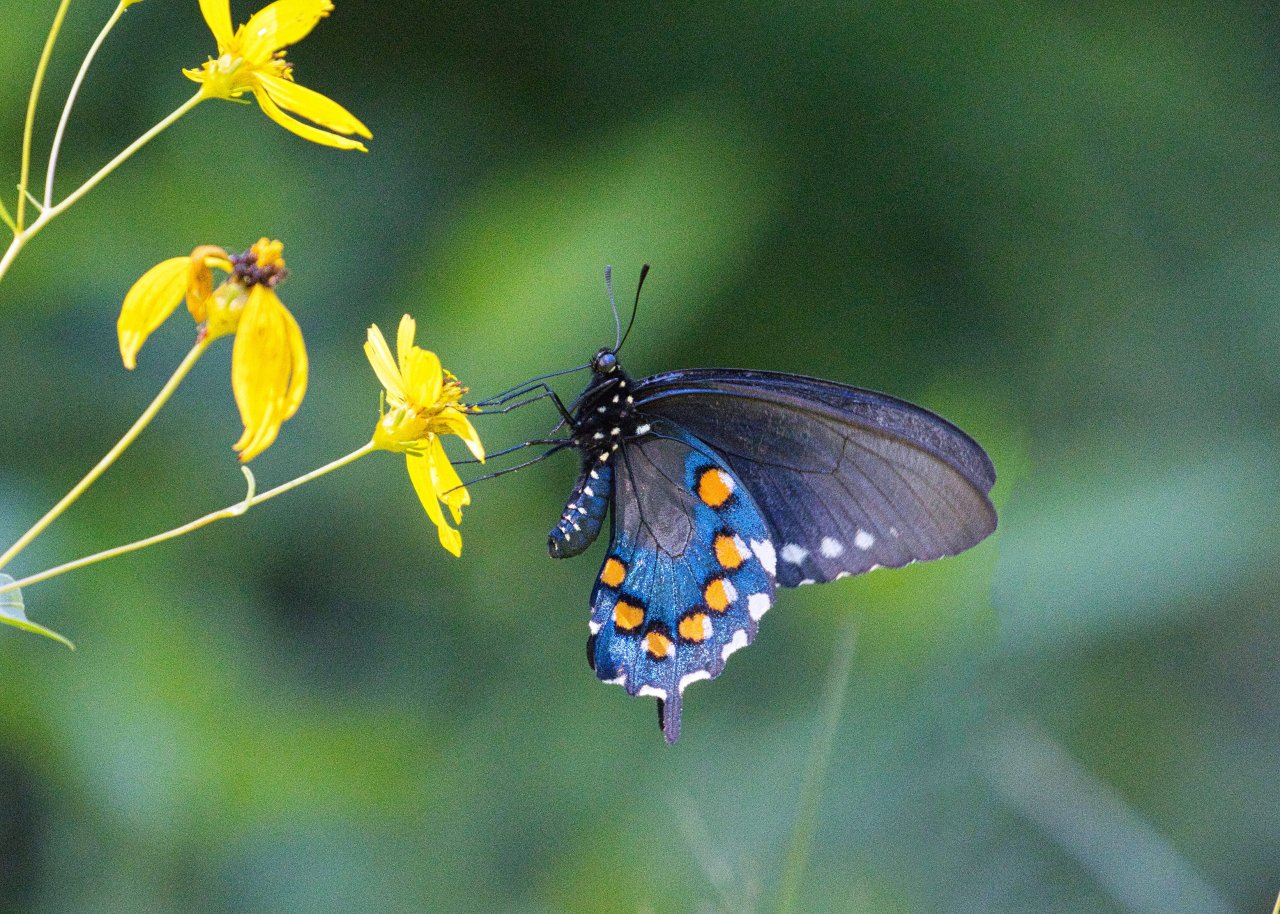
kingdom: Animalia
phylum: Arthropoda
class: Insecta
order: Lepidoptera
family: Papilionidae
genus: Battus
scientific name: Battus philenor
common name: Pipevine Swallowtail
